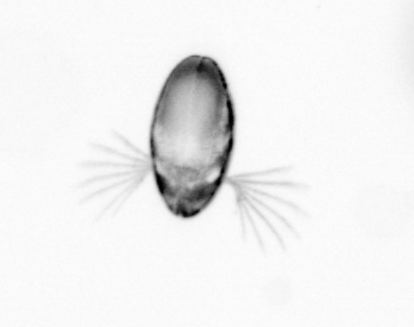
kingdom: Animalia
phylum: Arthropoda
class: Copepoda
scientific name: Copepoda
